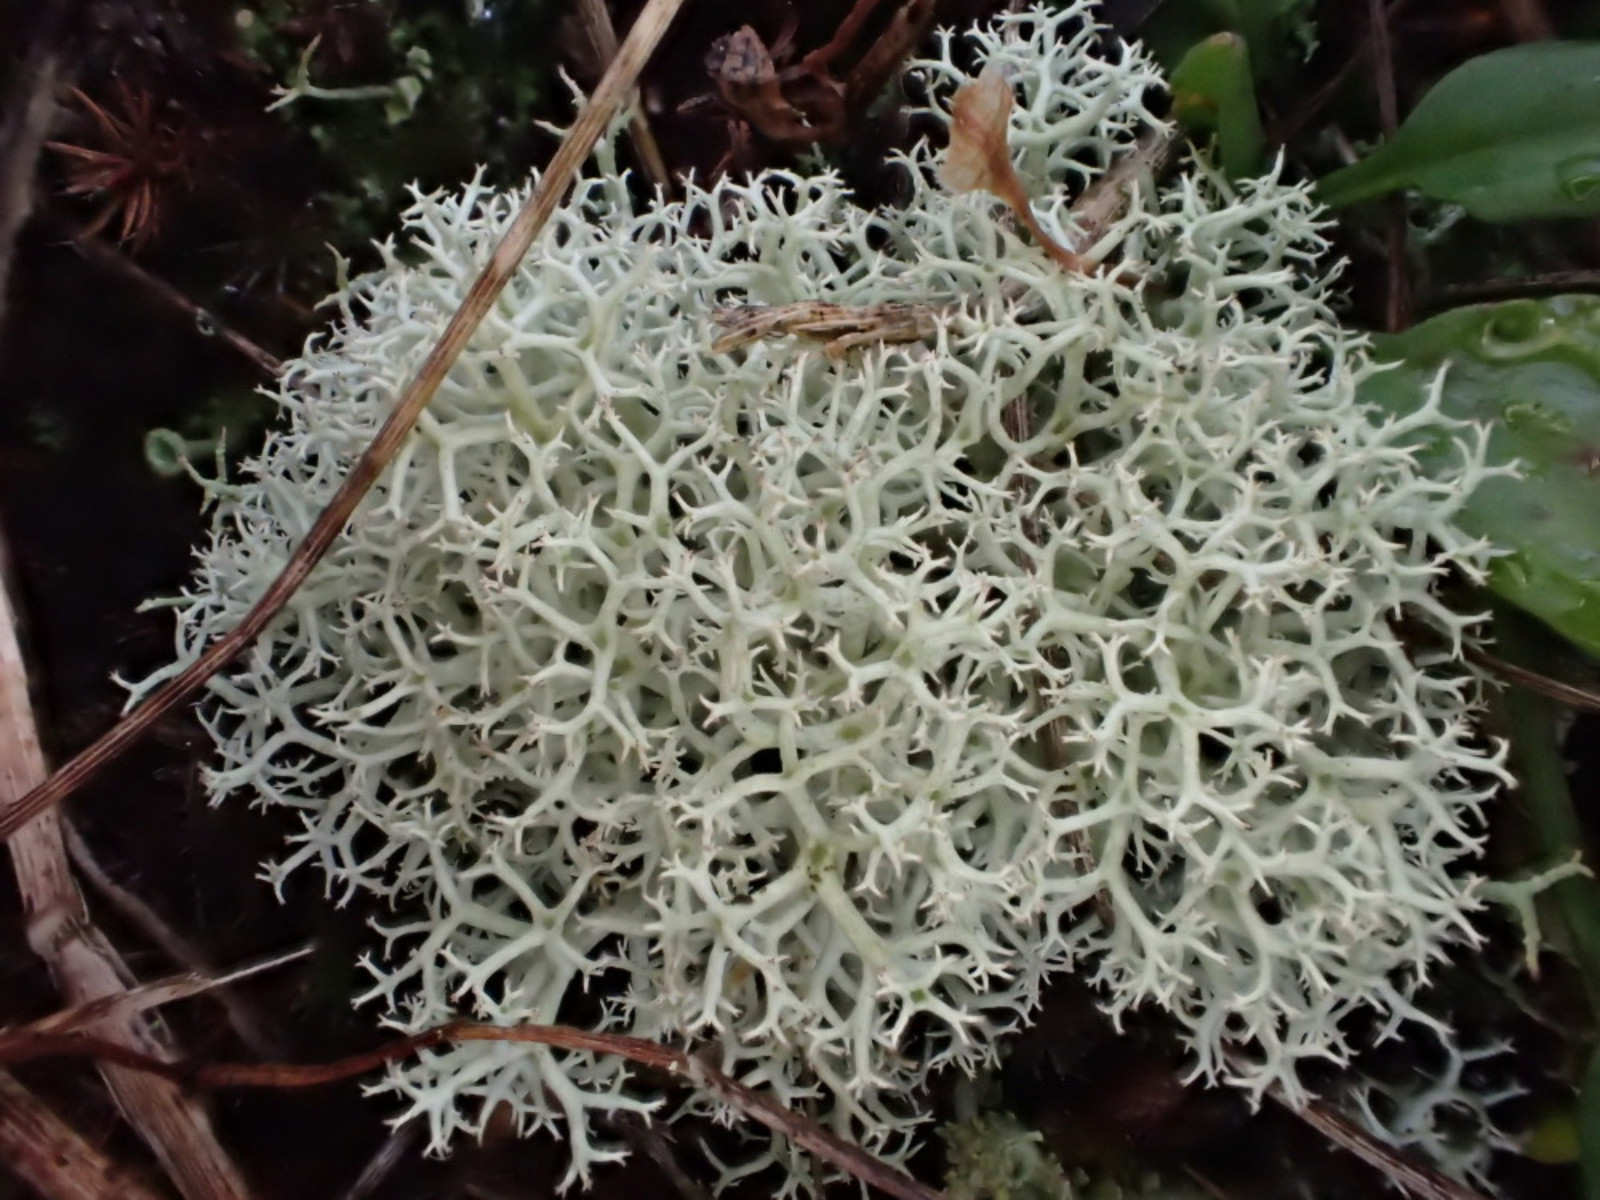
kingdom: Fungi
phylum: Ascomycota
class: Lecanoromycetes
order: Lecanorales
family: Cladoniaceae
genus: Cladonia
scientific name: Cladonia portentosa
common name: hede-rensdyrlav
